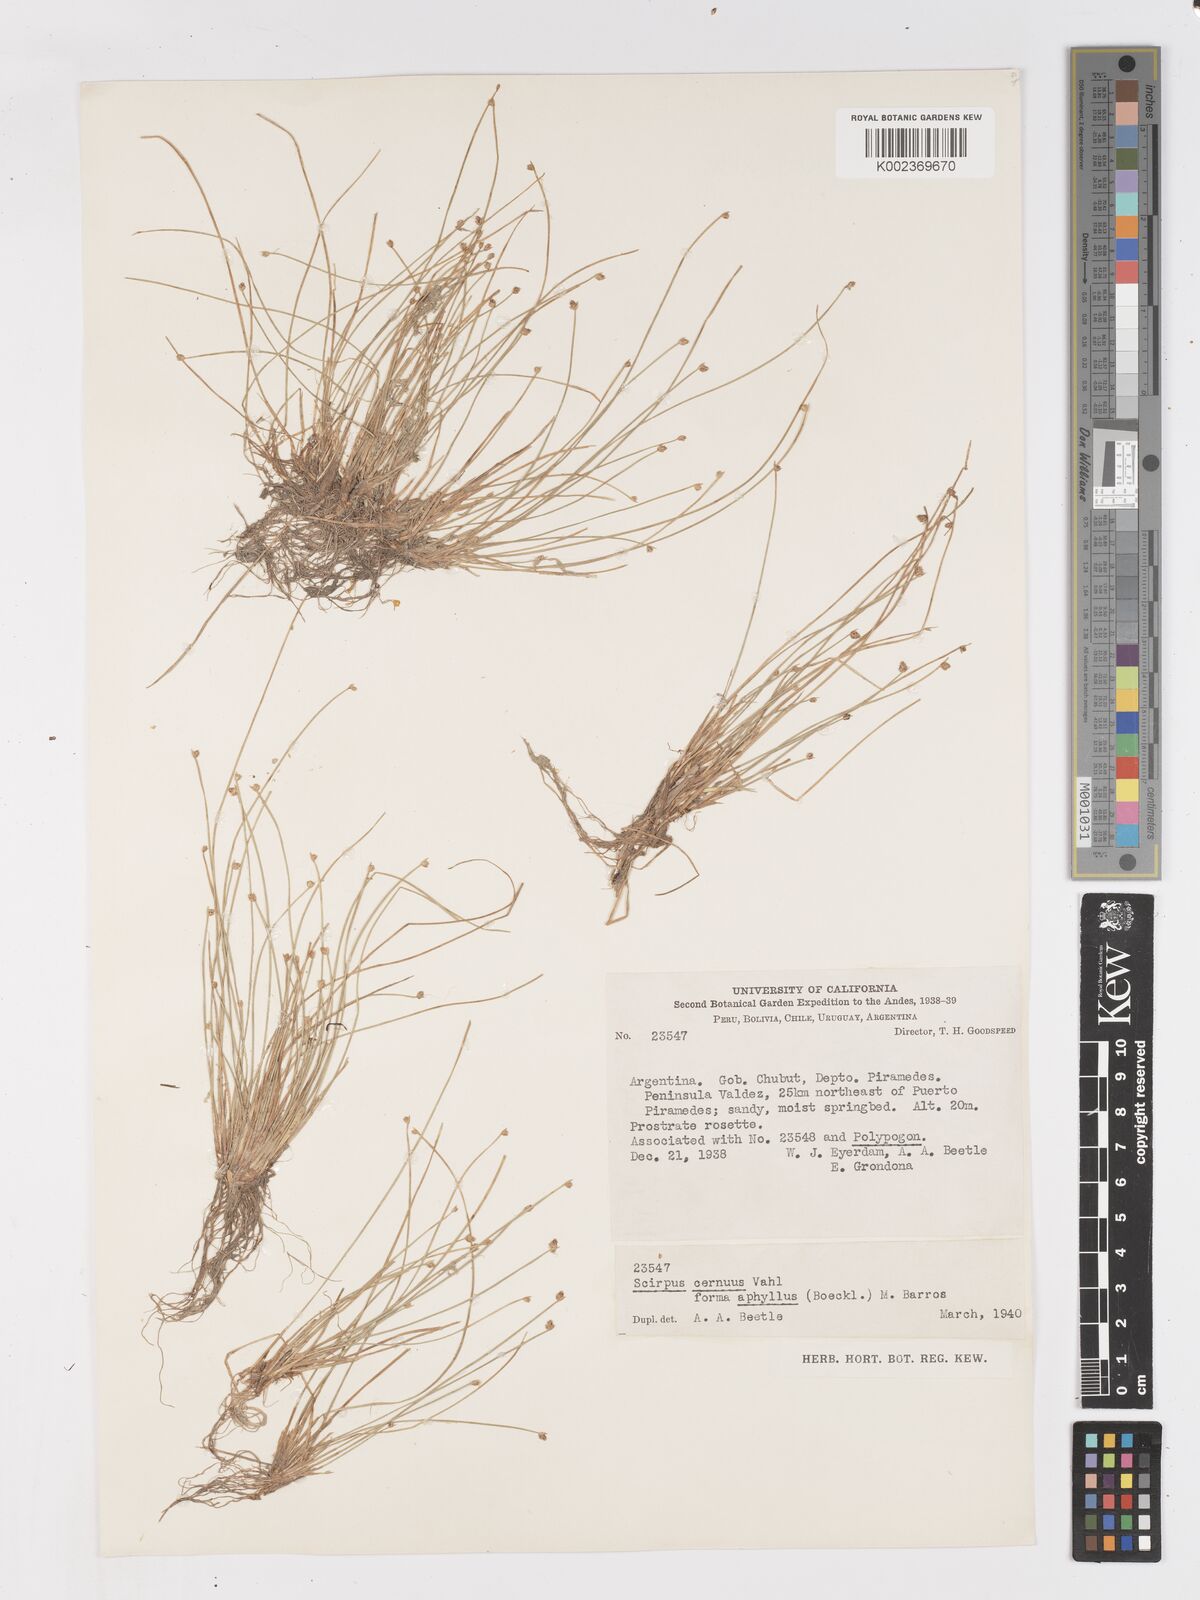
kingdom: Plantae
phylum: Tracheophyta
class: Liliopsida
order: Poales
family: Cyperaceae
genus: Isolepis
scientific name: Isolepis cernua
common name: Slender club-rush
